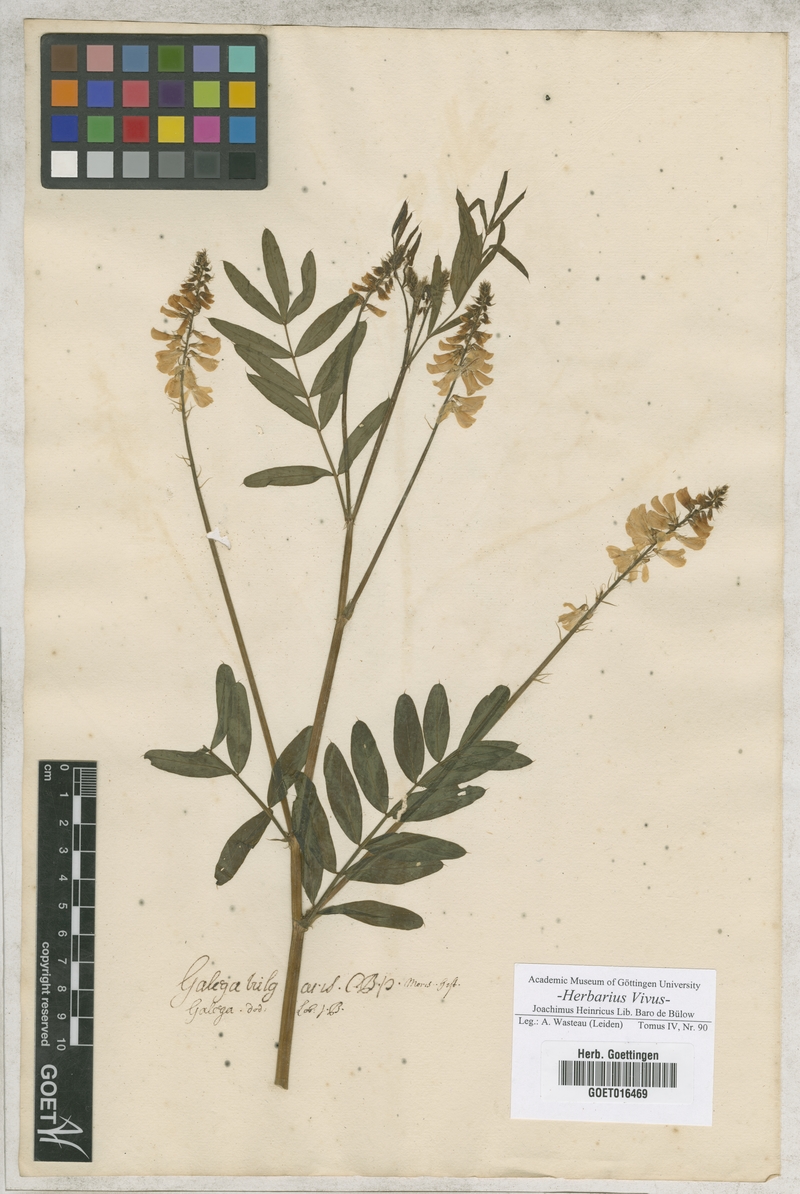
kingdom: Plantae
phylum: Tracheophyta
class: Magnoliopsida
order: Fabales
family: Fabaceae
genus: Galega
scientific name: Galega officinalis
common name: Goat's-rue
